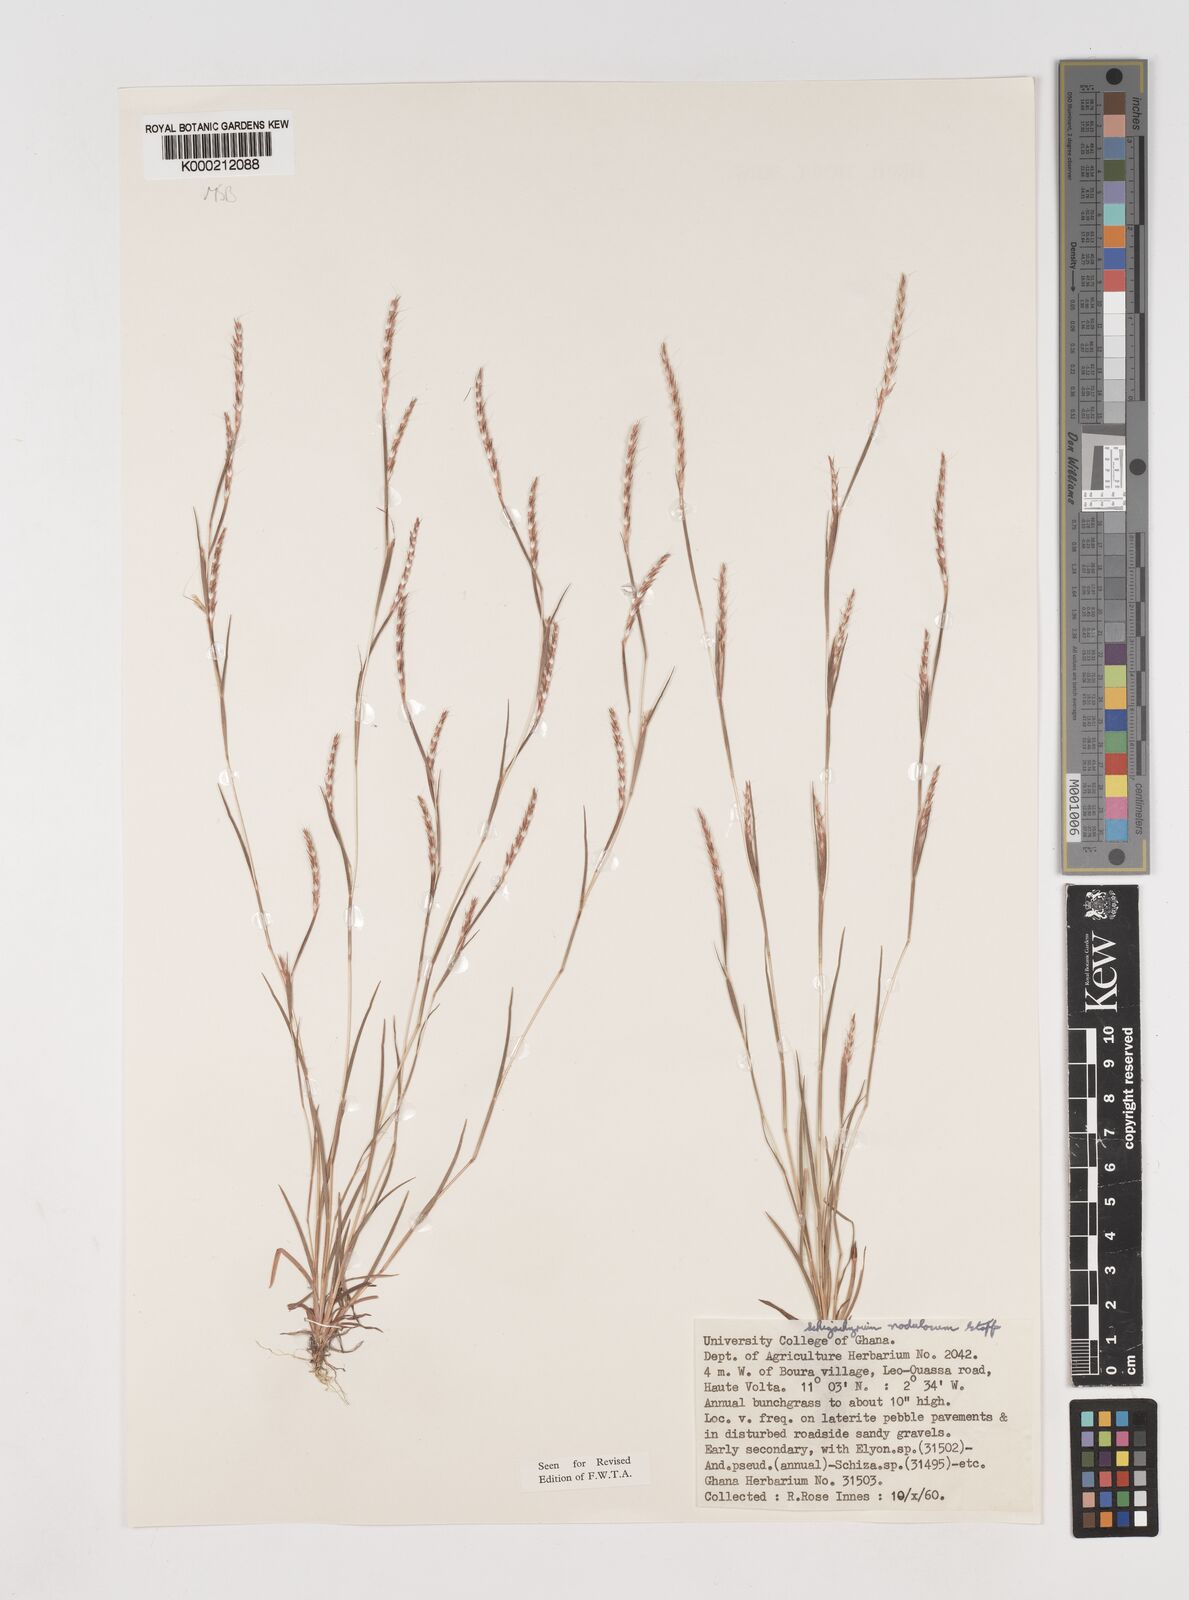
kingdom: Plantae
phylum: Tracheophyta
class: Liliopsida
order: Poales
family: Poaceae
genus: Schizachyrium
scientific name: Schizachyrium nodulosum
